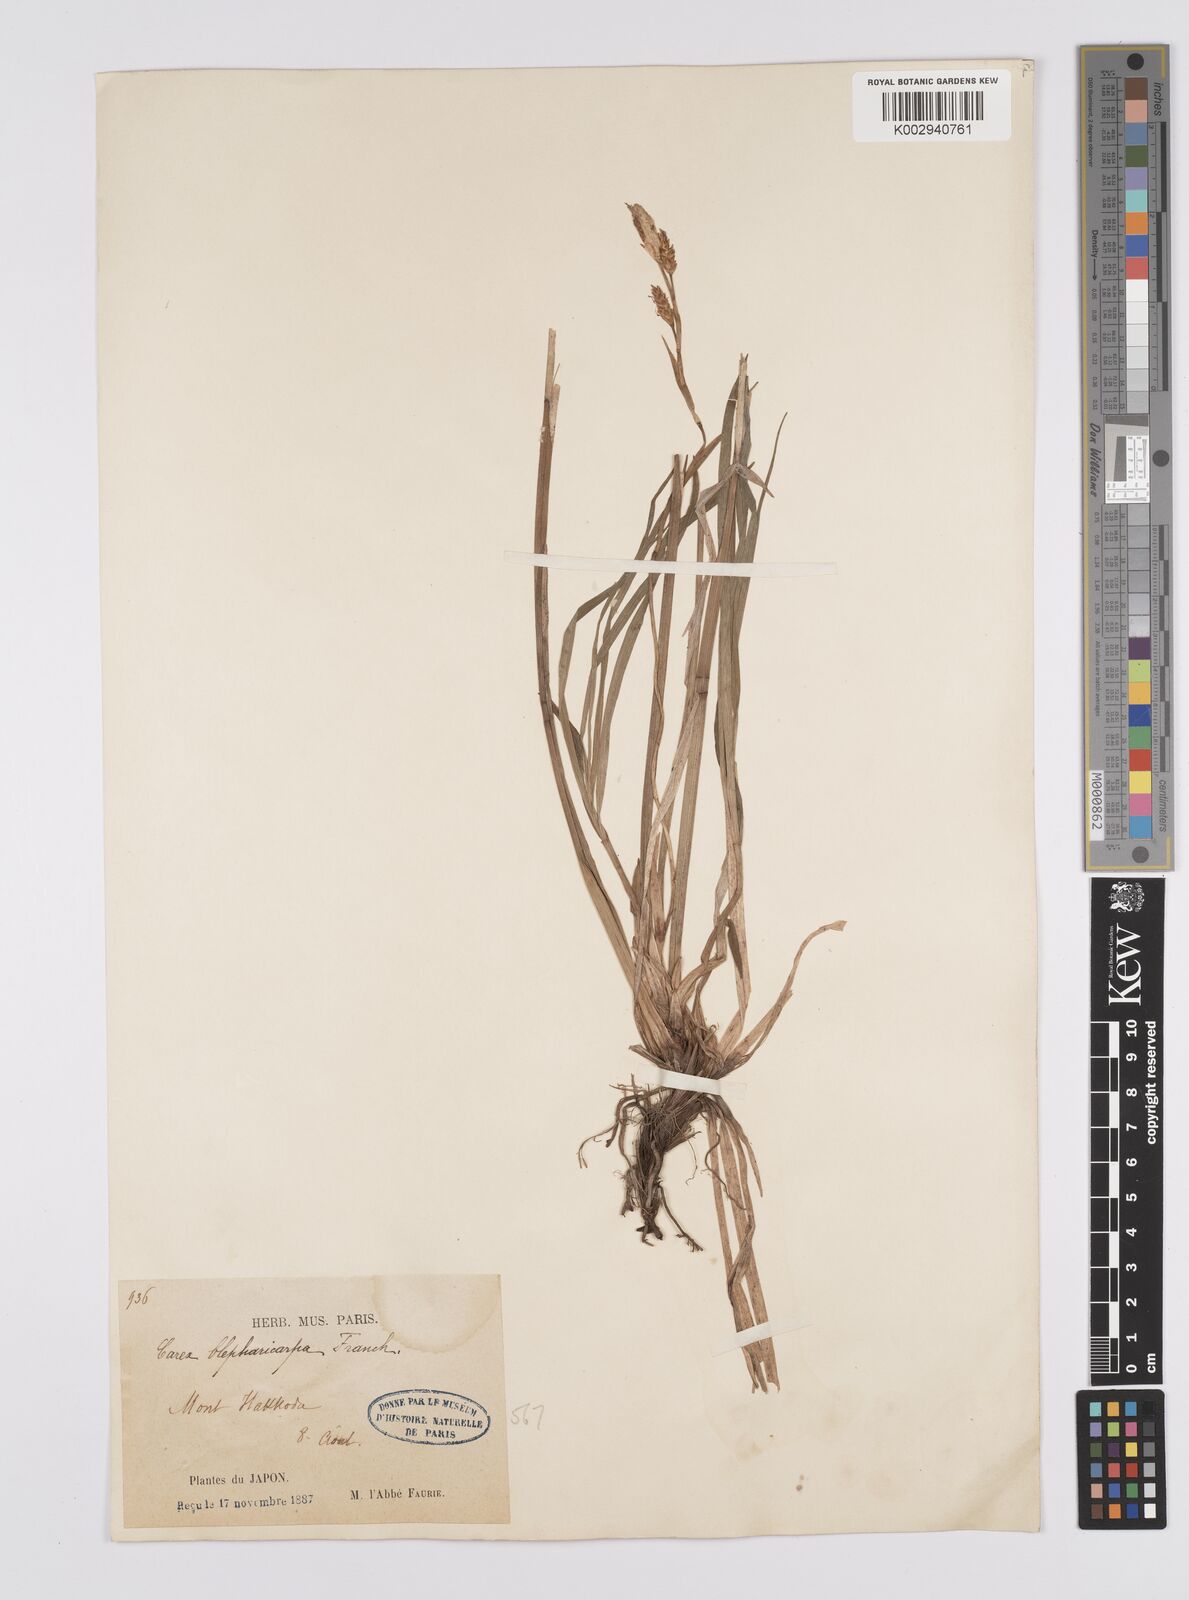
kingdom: Plantae
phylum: Tracheophyta
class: Liliopsida
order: Poales
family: Cyperaceae
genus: Carex
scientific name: Carex blepharicarpa
